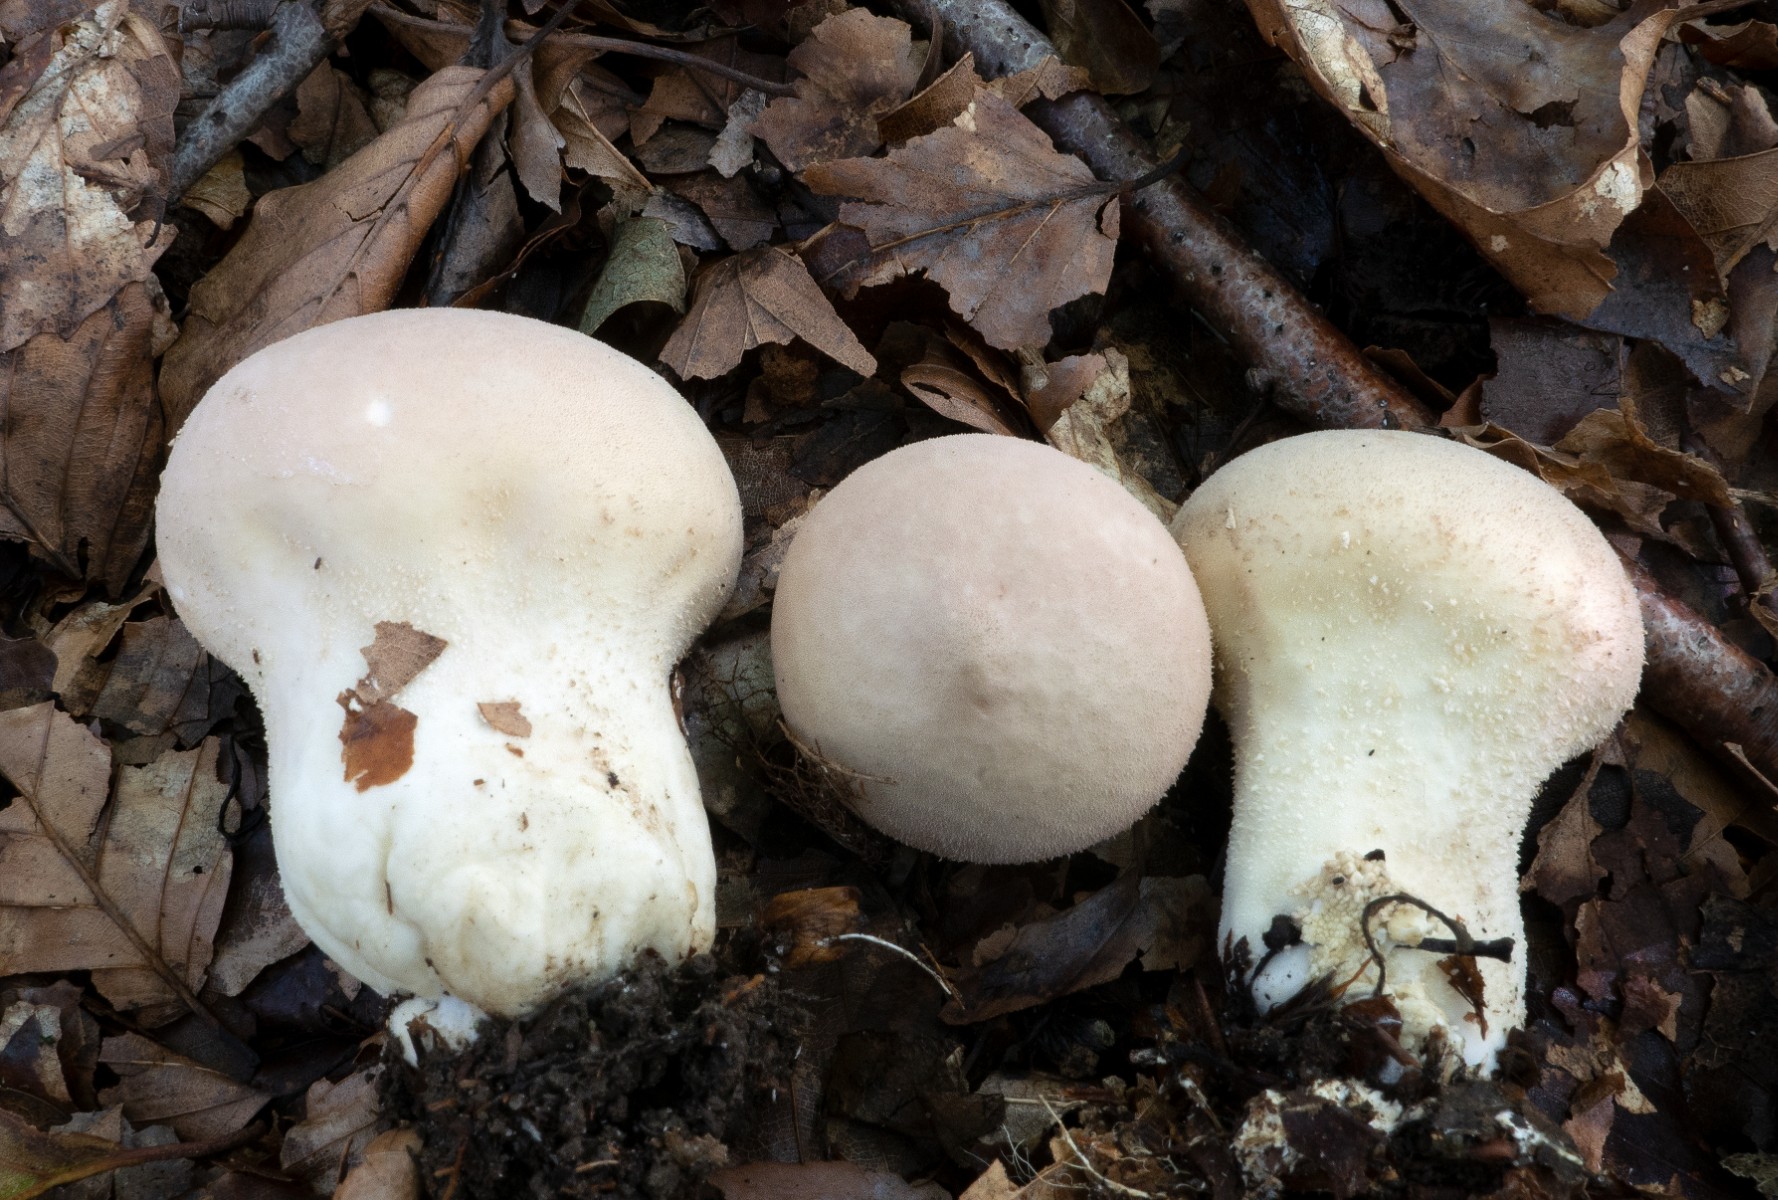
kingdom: Fungi
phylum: Basidiomycota
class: Agaricomycetes
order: Agaricales
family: Lycoperdaceae
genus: Lycoperdon
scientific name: Lycoperdon mammiforme
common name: rosa støvbold
